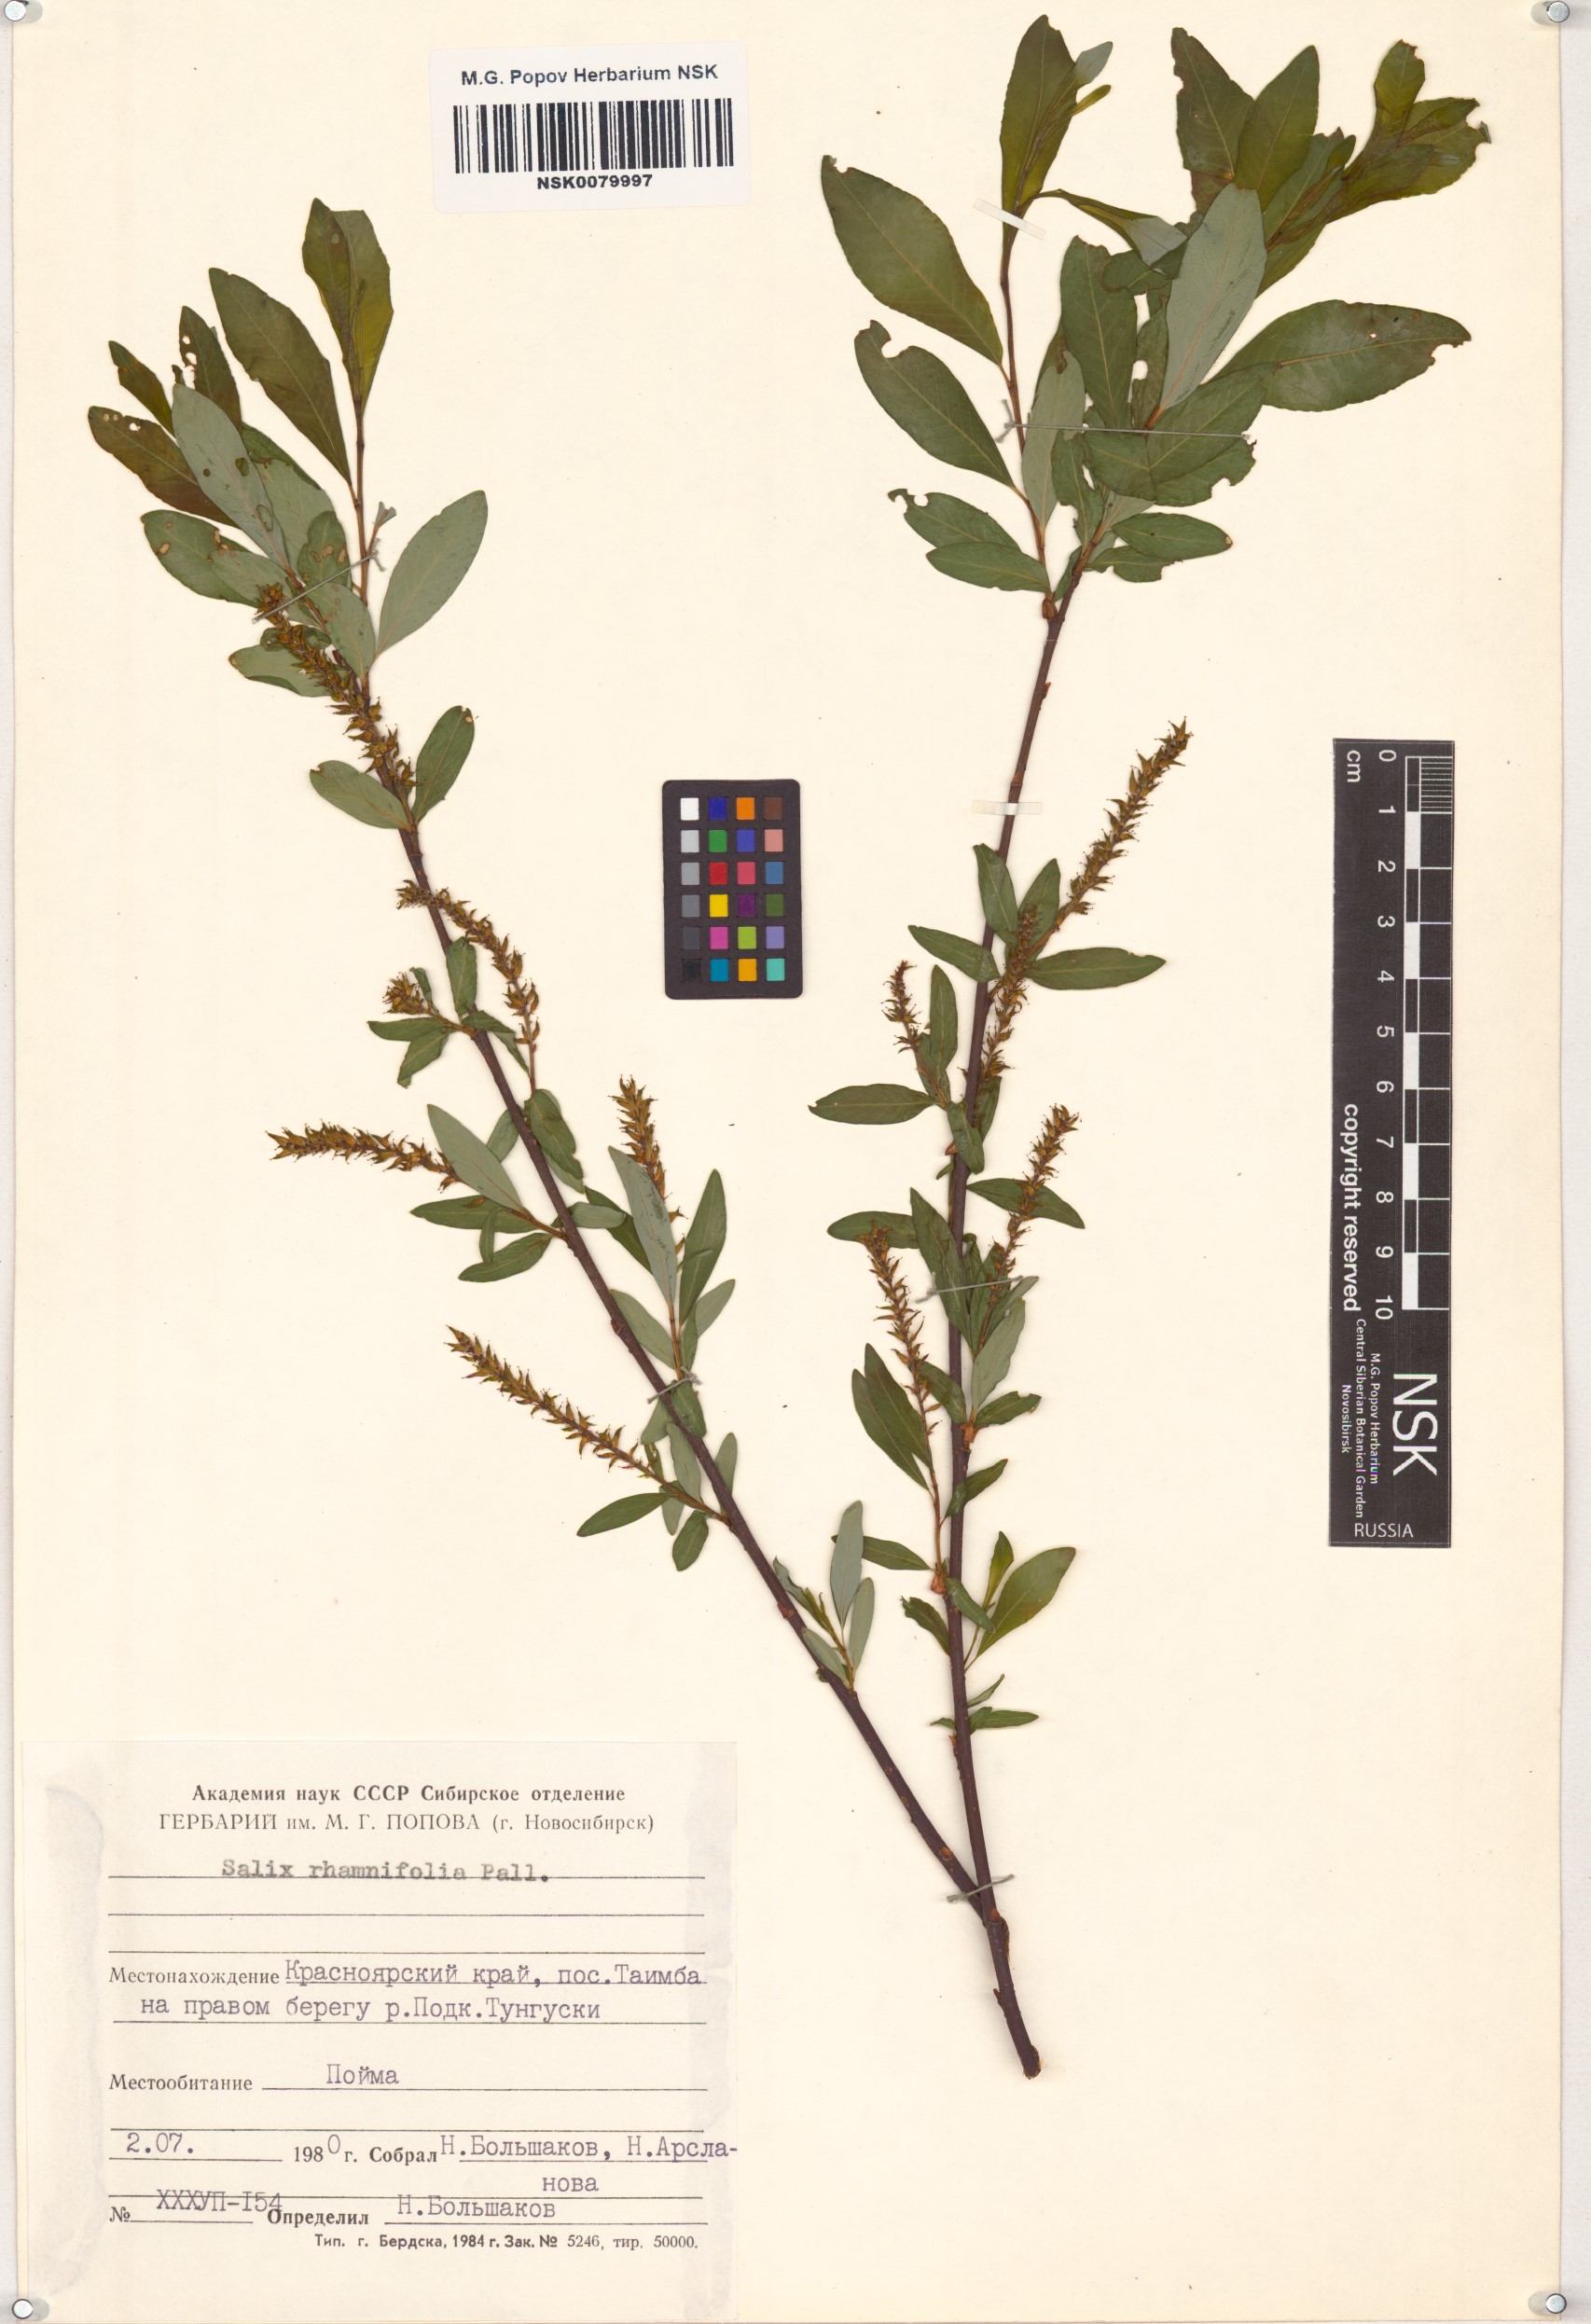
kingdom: Plantae
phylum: Tracheophyta
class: Magnoliopsida
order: Malpighiales
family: Salicaceae
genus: Salix
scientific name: Salix rhamnifolia
